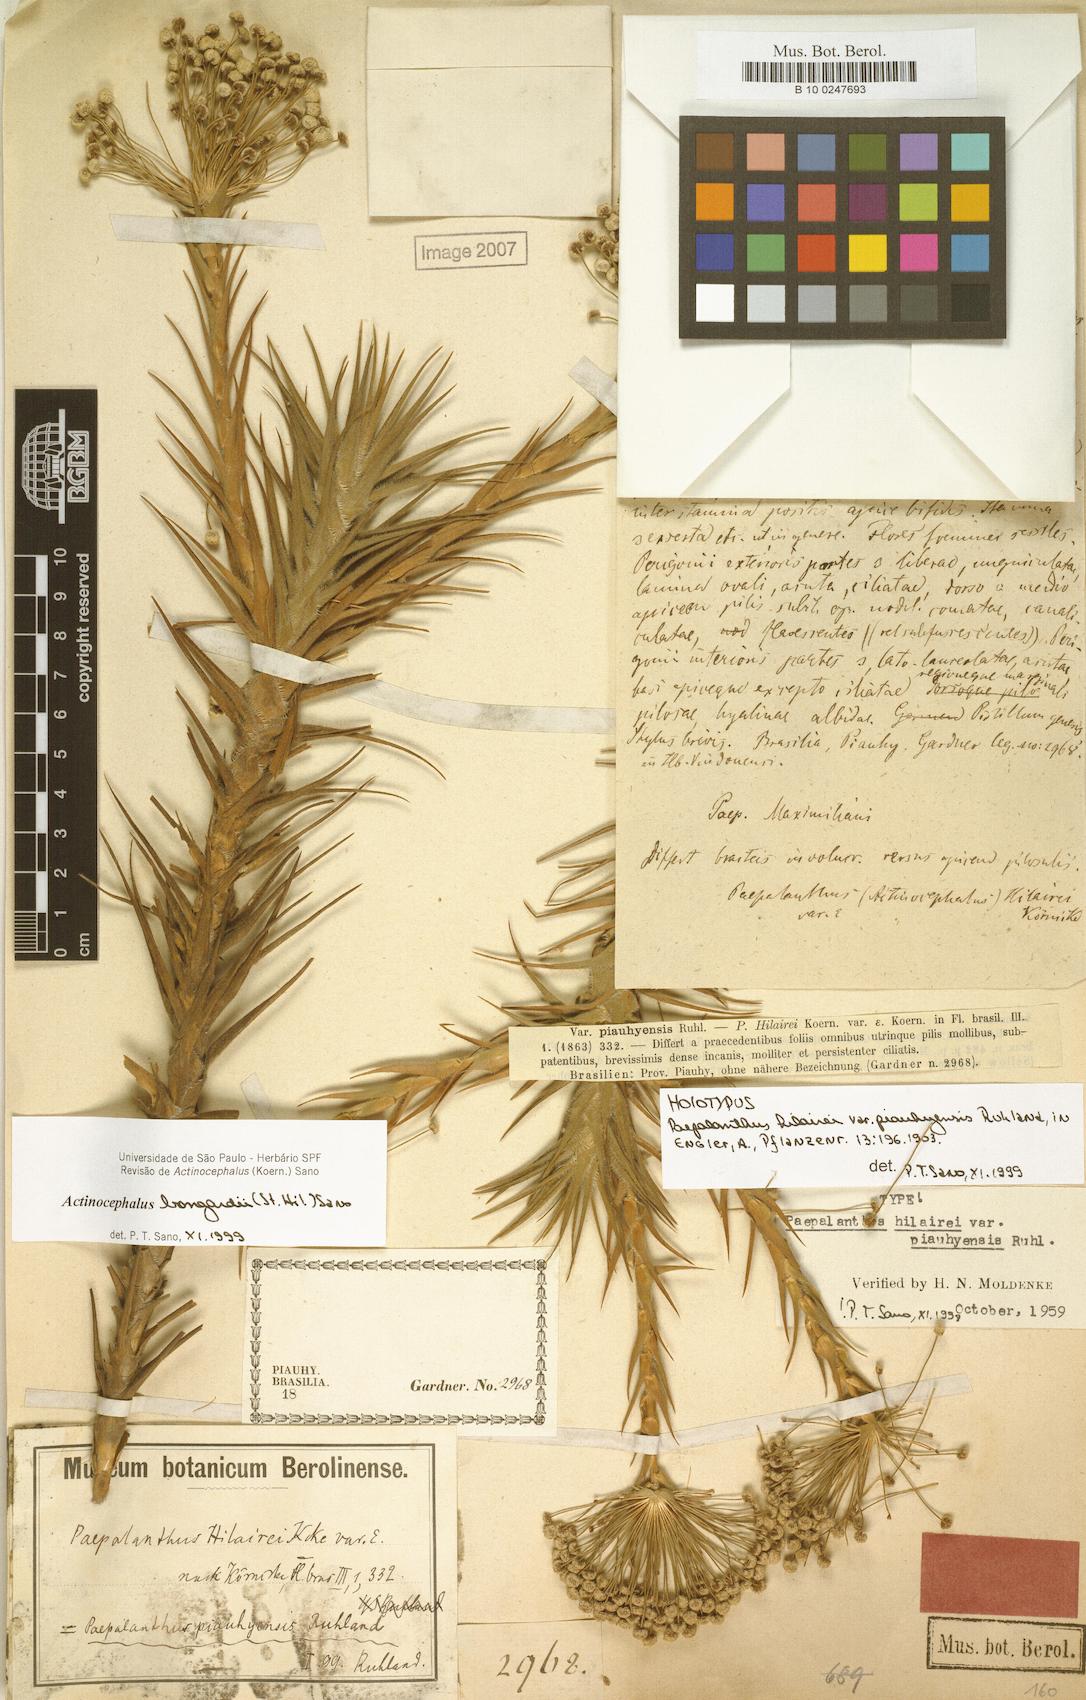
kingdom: Plantae
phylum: Tracheophyta
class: Liliopsida
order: Poales
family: Eriocaulaceae
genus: Paepalanthus
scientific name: Paepalanthus hilairei
